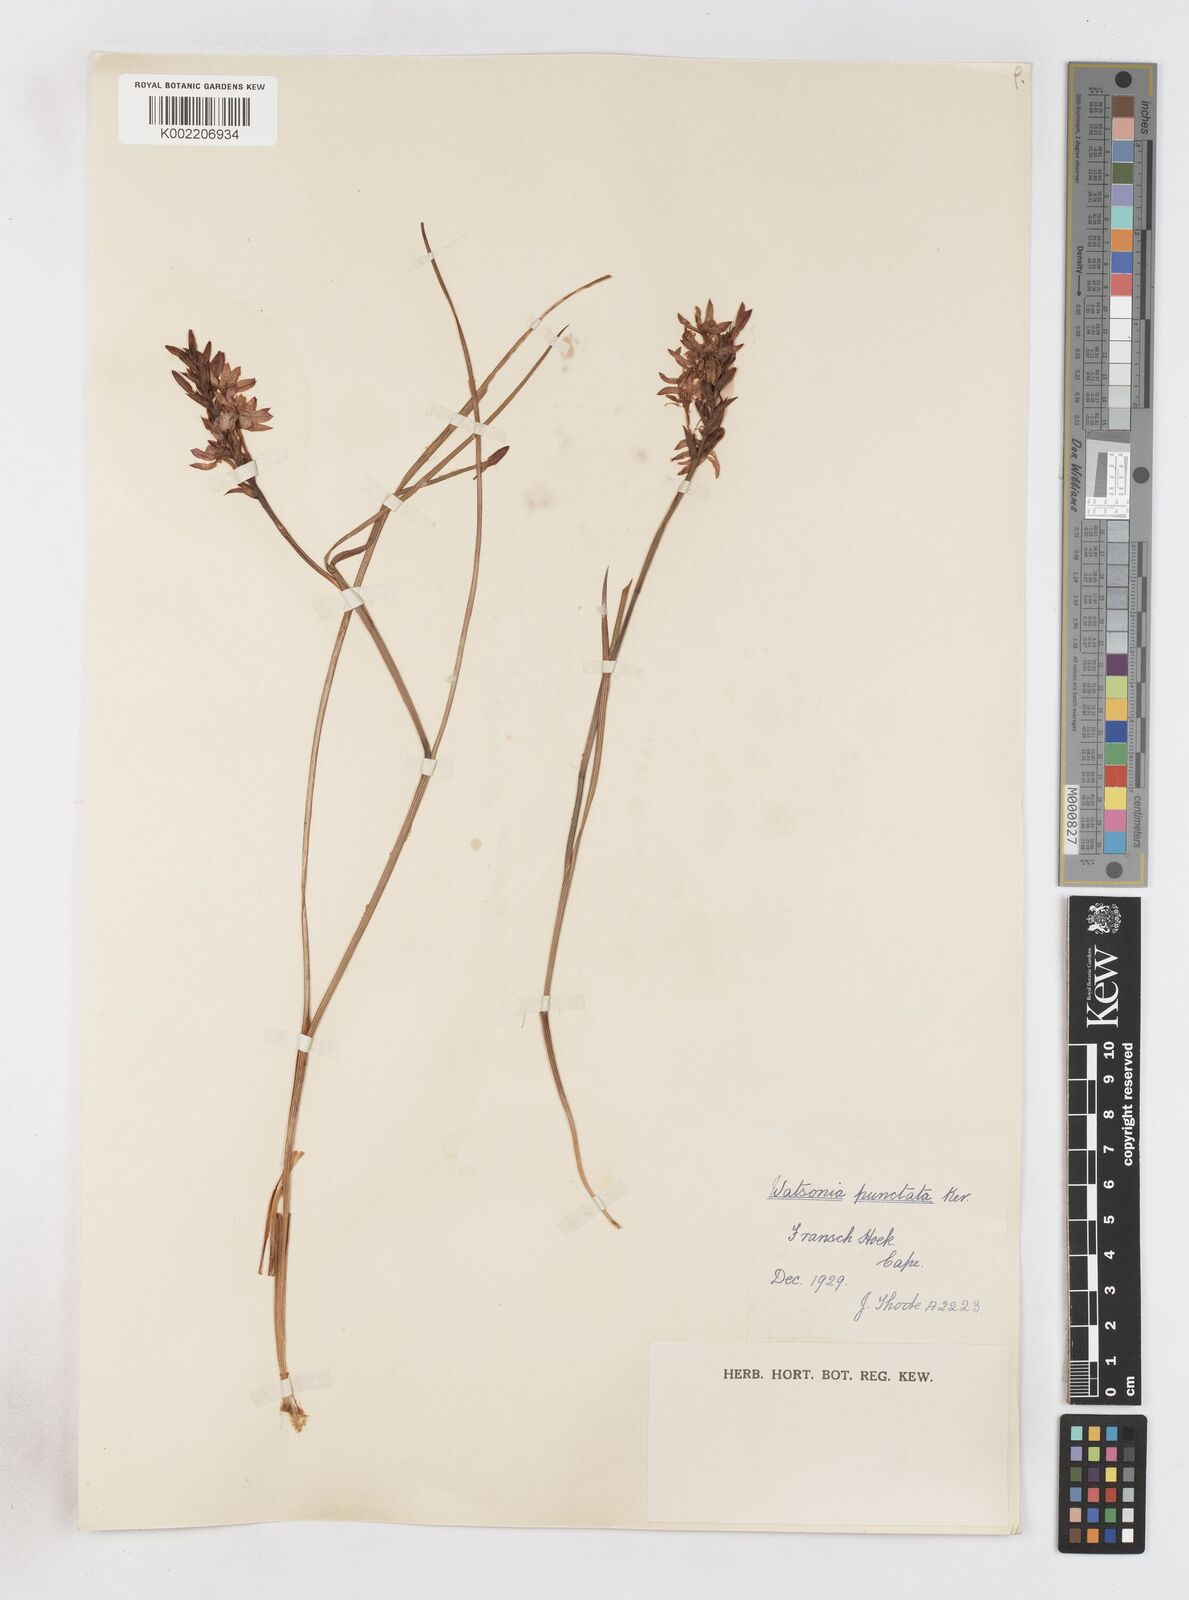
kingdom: Plantae
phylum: Tracheophyta
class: Liliopsida
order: Asparagales
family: Iridaceae
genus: Thereianthus
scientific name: Thereianthus spicatus
